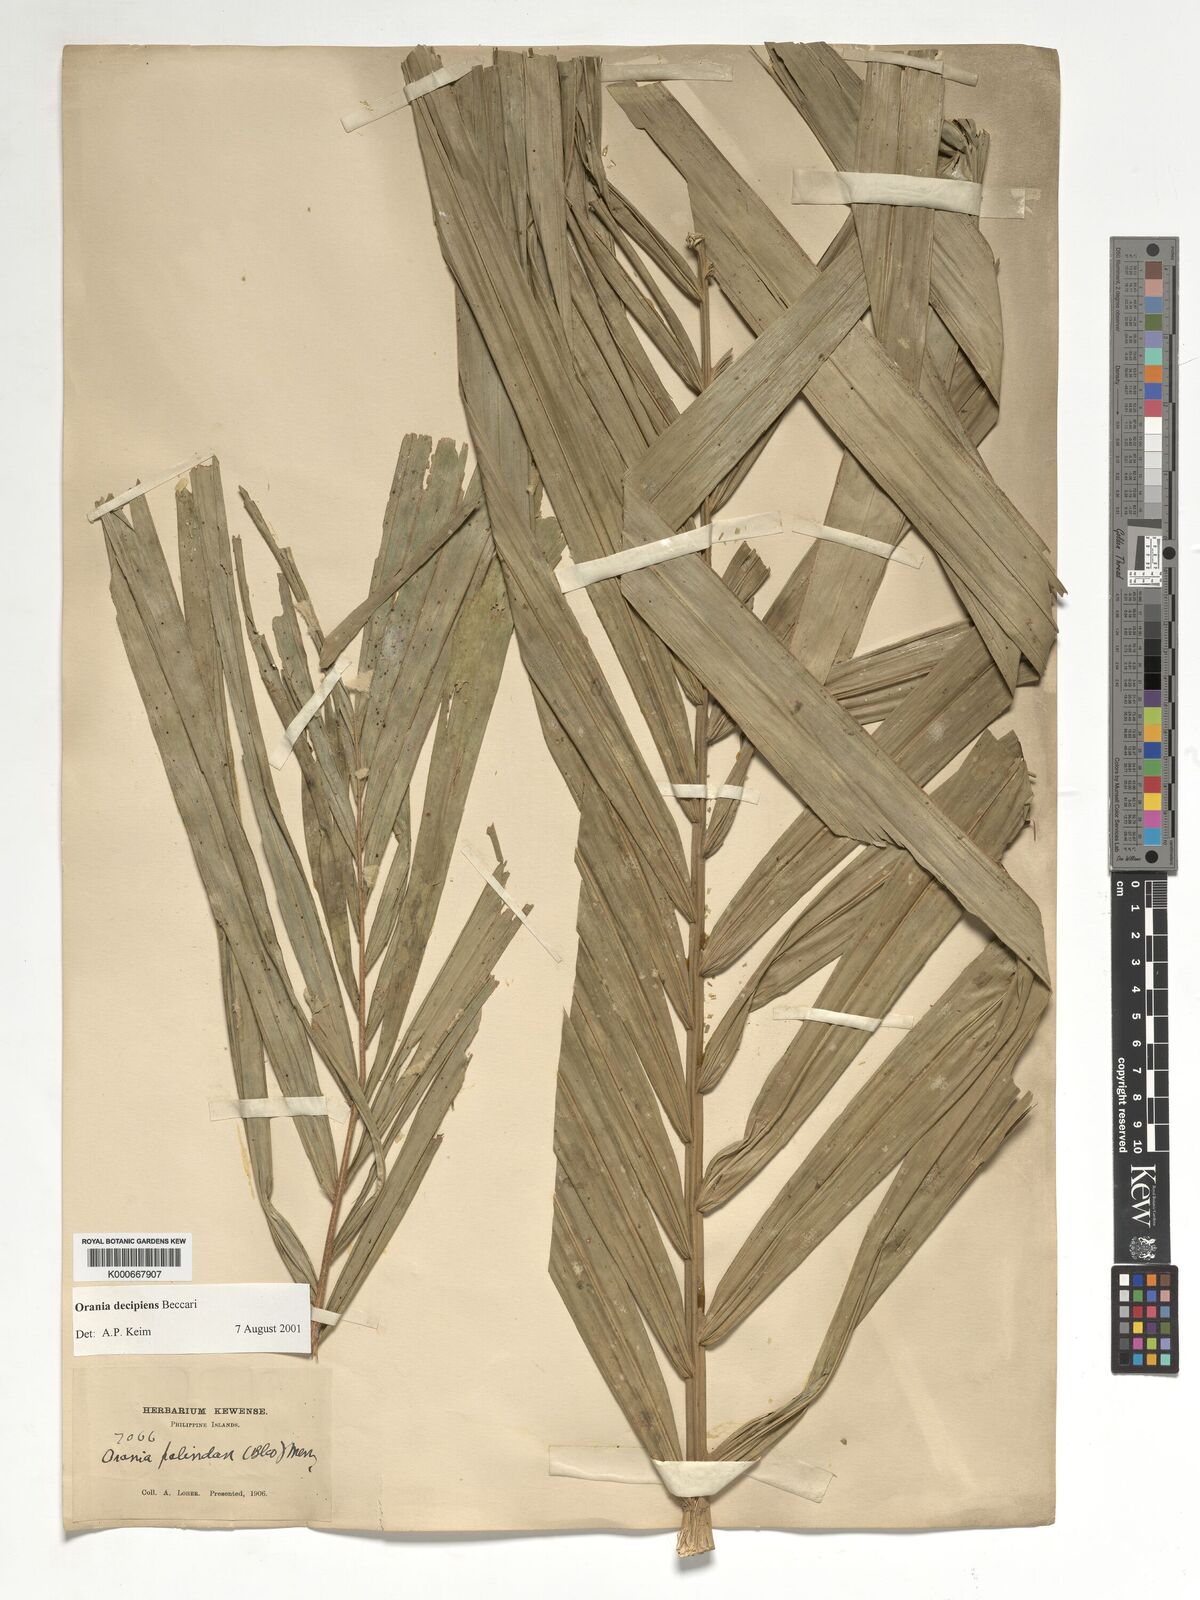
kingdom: Plantae
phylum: Tracheophyta
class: Liliopsida
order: Arecales
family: Arecaceae
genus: Orania
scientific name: Orania decipiens
